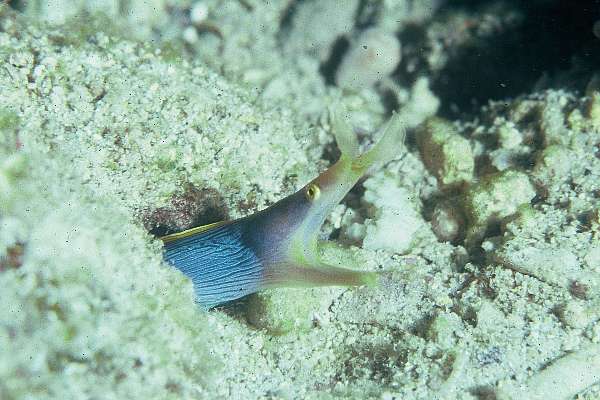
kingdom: Animalia
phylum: Chordata
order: Anguilliformes
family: Muraenidae
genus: Rhinomuraena
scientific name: Rhinomuraena quaesita
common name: Ribbon eel
